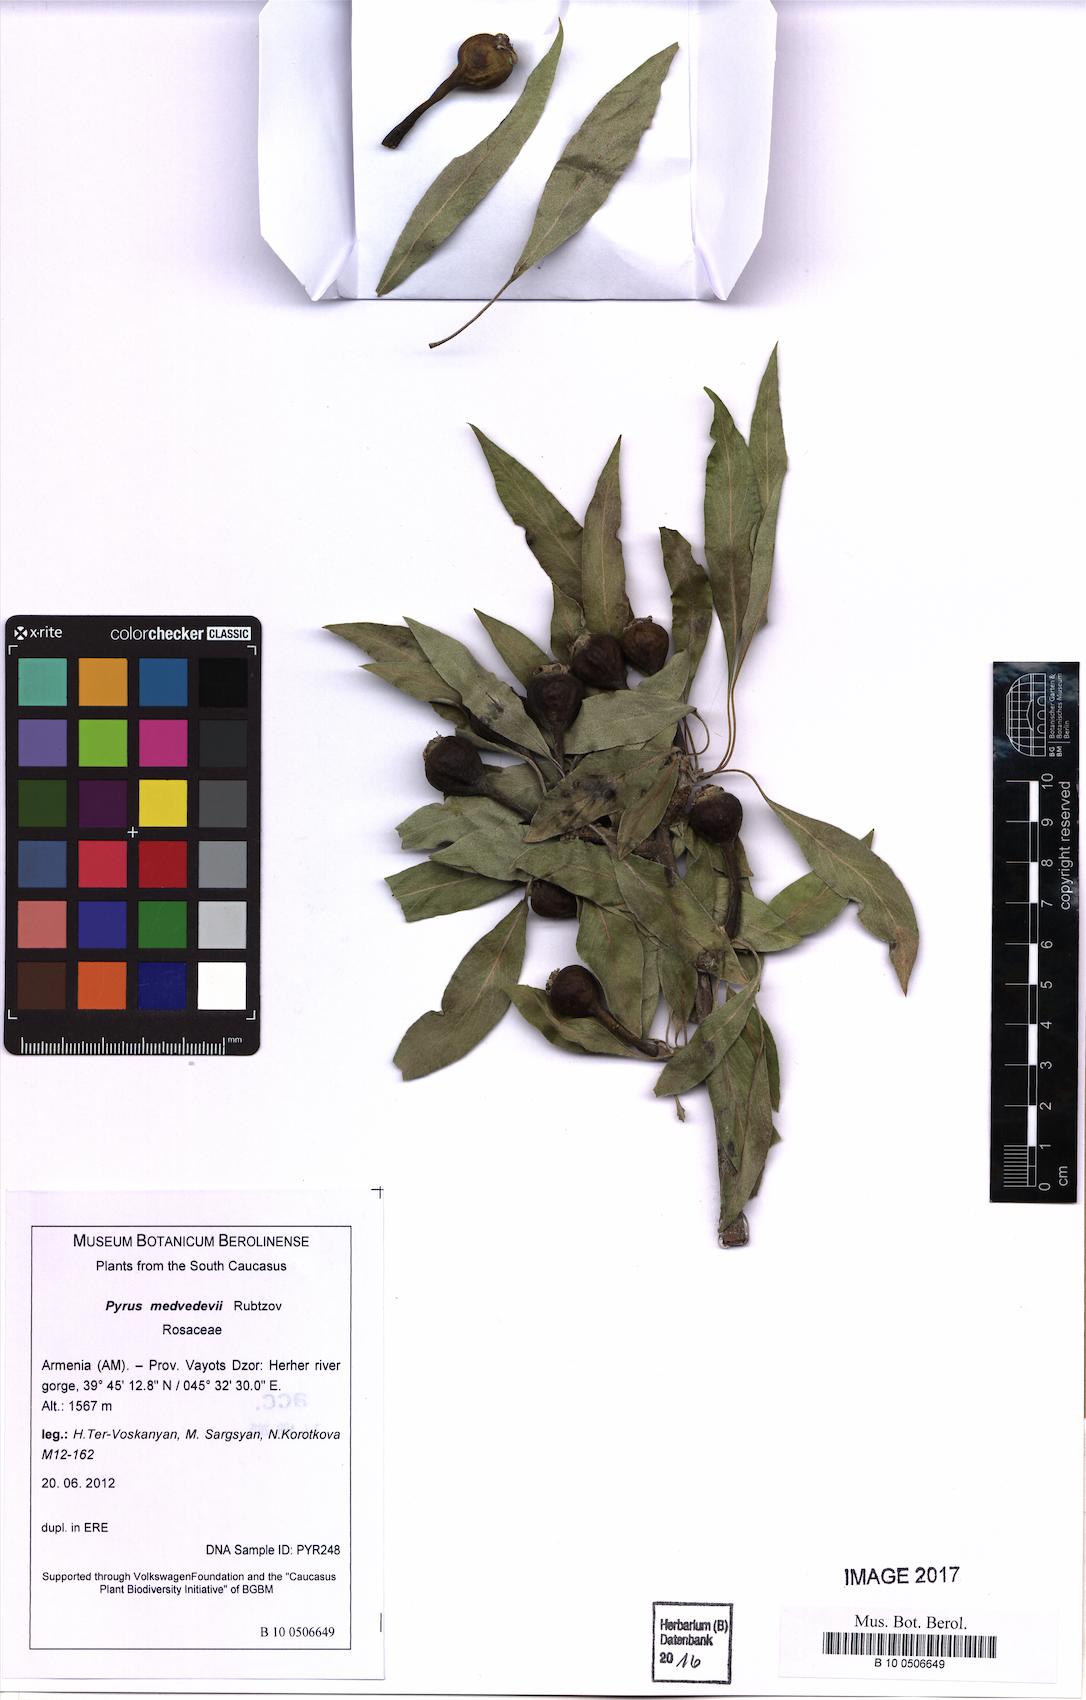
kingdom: Plantae
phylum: Tracheophyta
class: Magnoliopsida
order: Rosales
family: Rosaceae
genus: Pyrus
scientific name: Pyrus medvedevii
